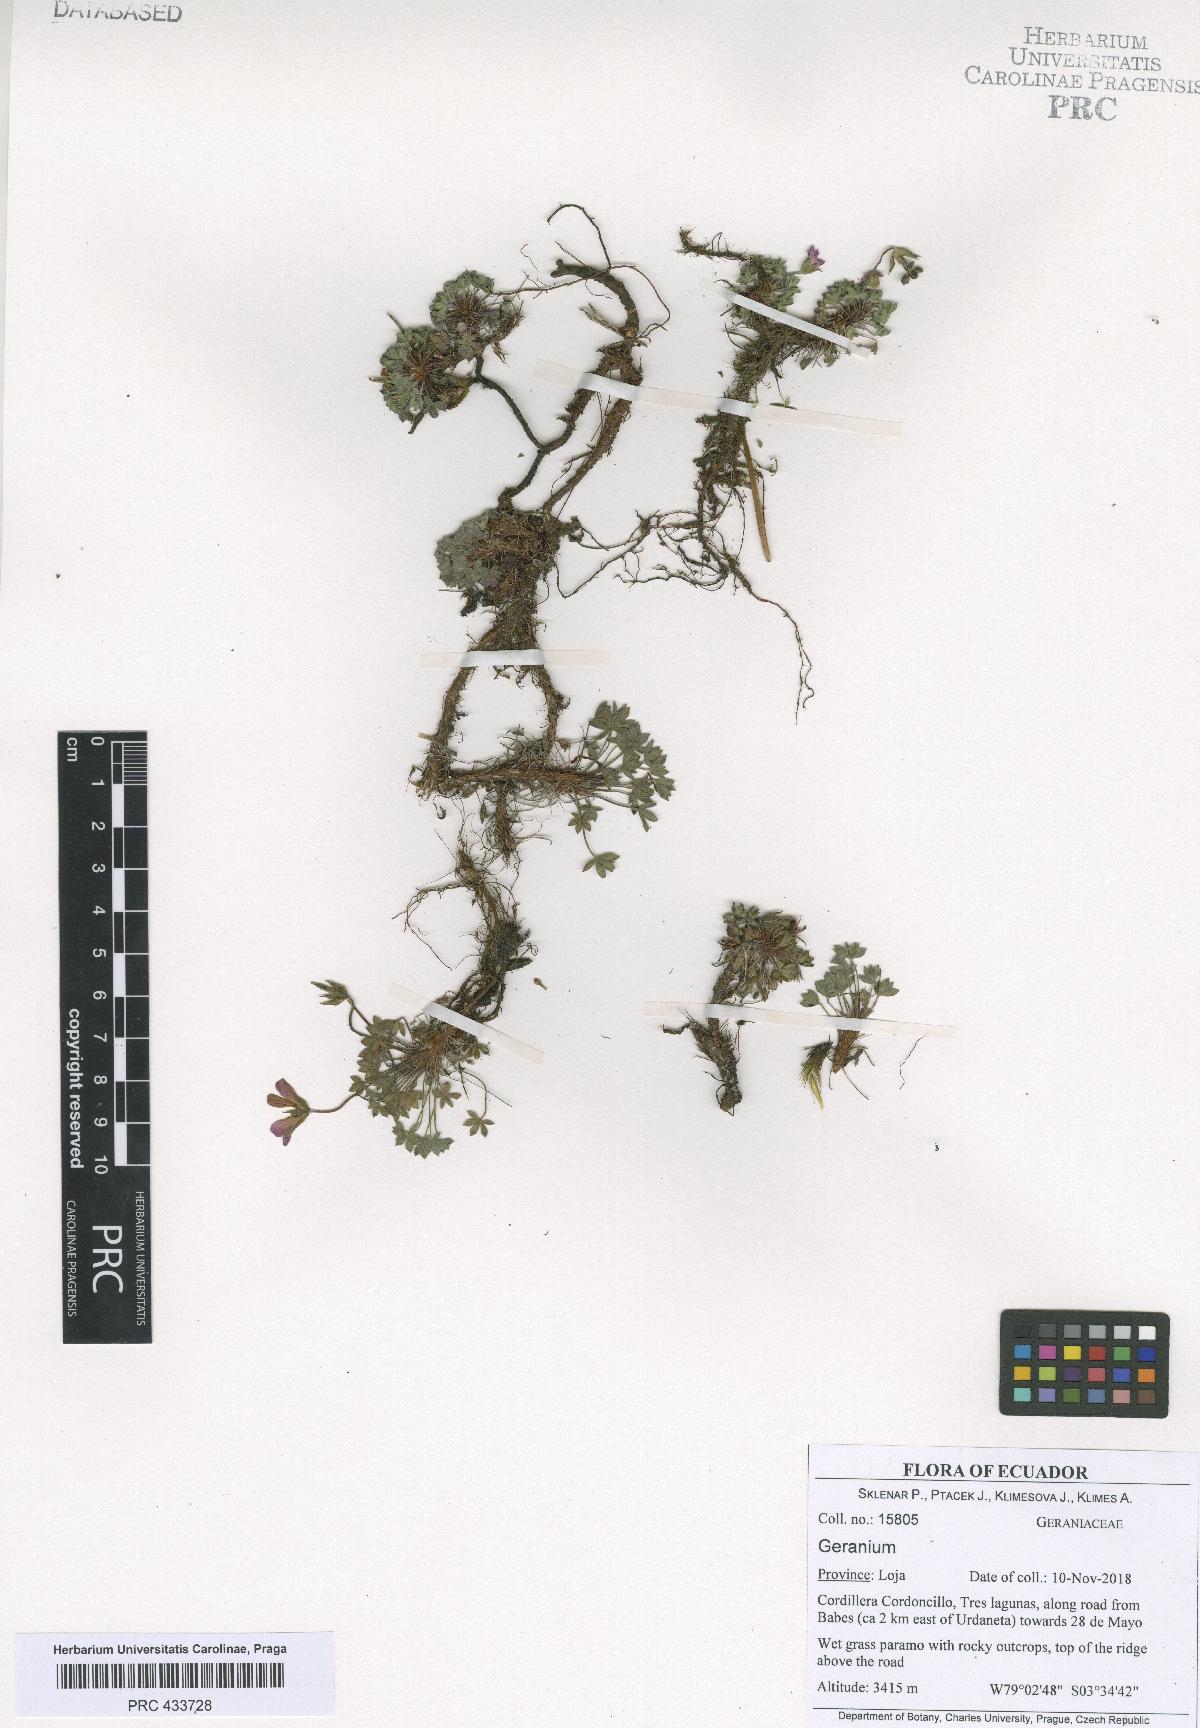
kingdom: Plantae
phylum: Tracheophyta
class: Magnoliopsida
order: Geraniales
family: Geraniaceae
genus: Geranium
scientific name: Geranium sibbaldioides
